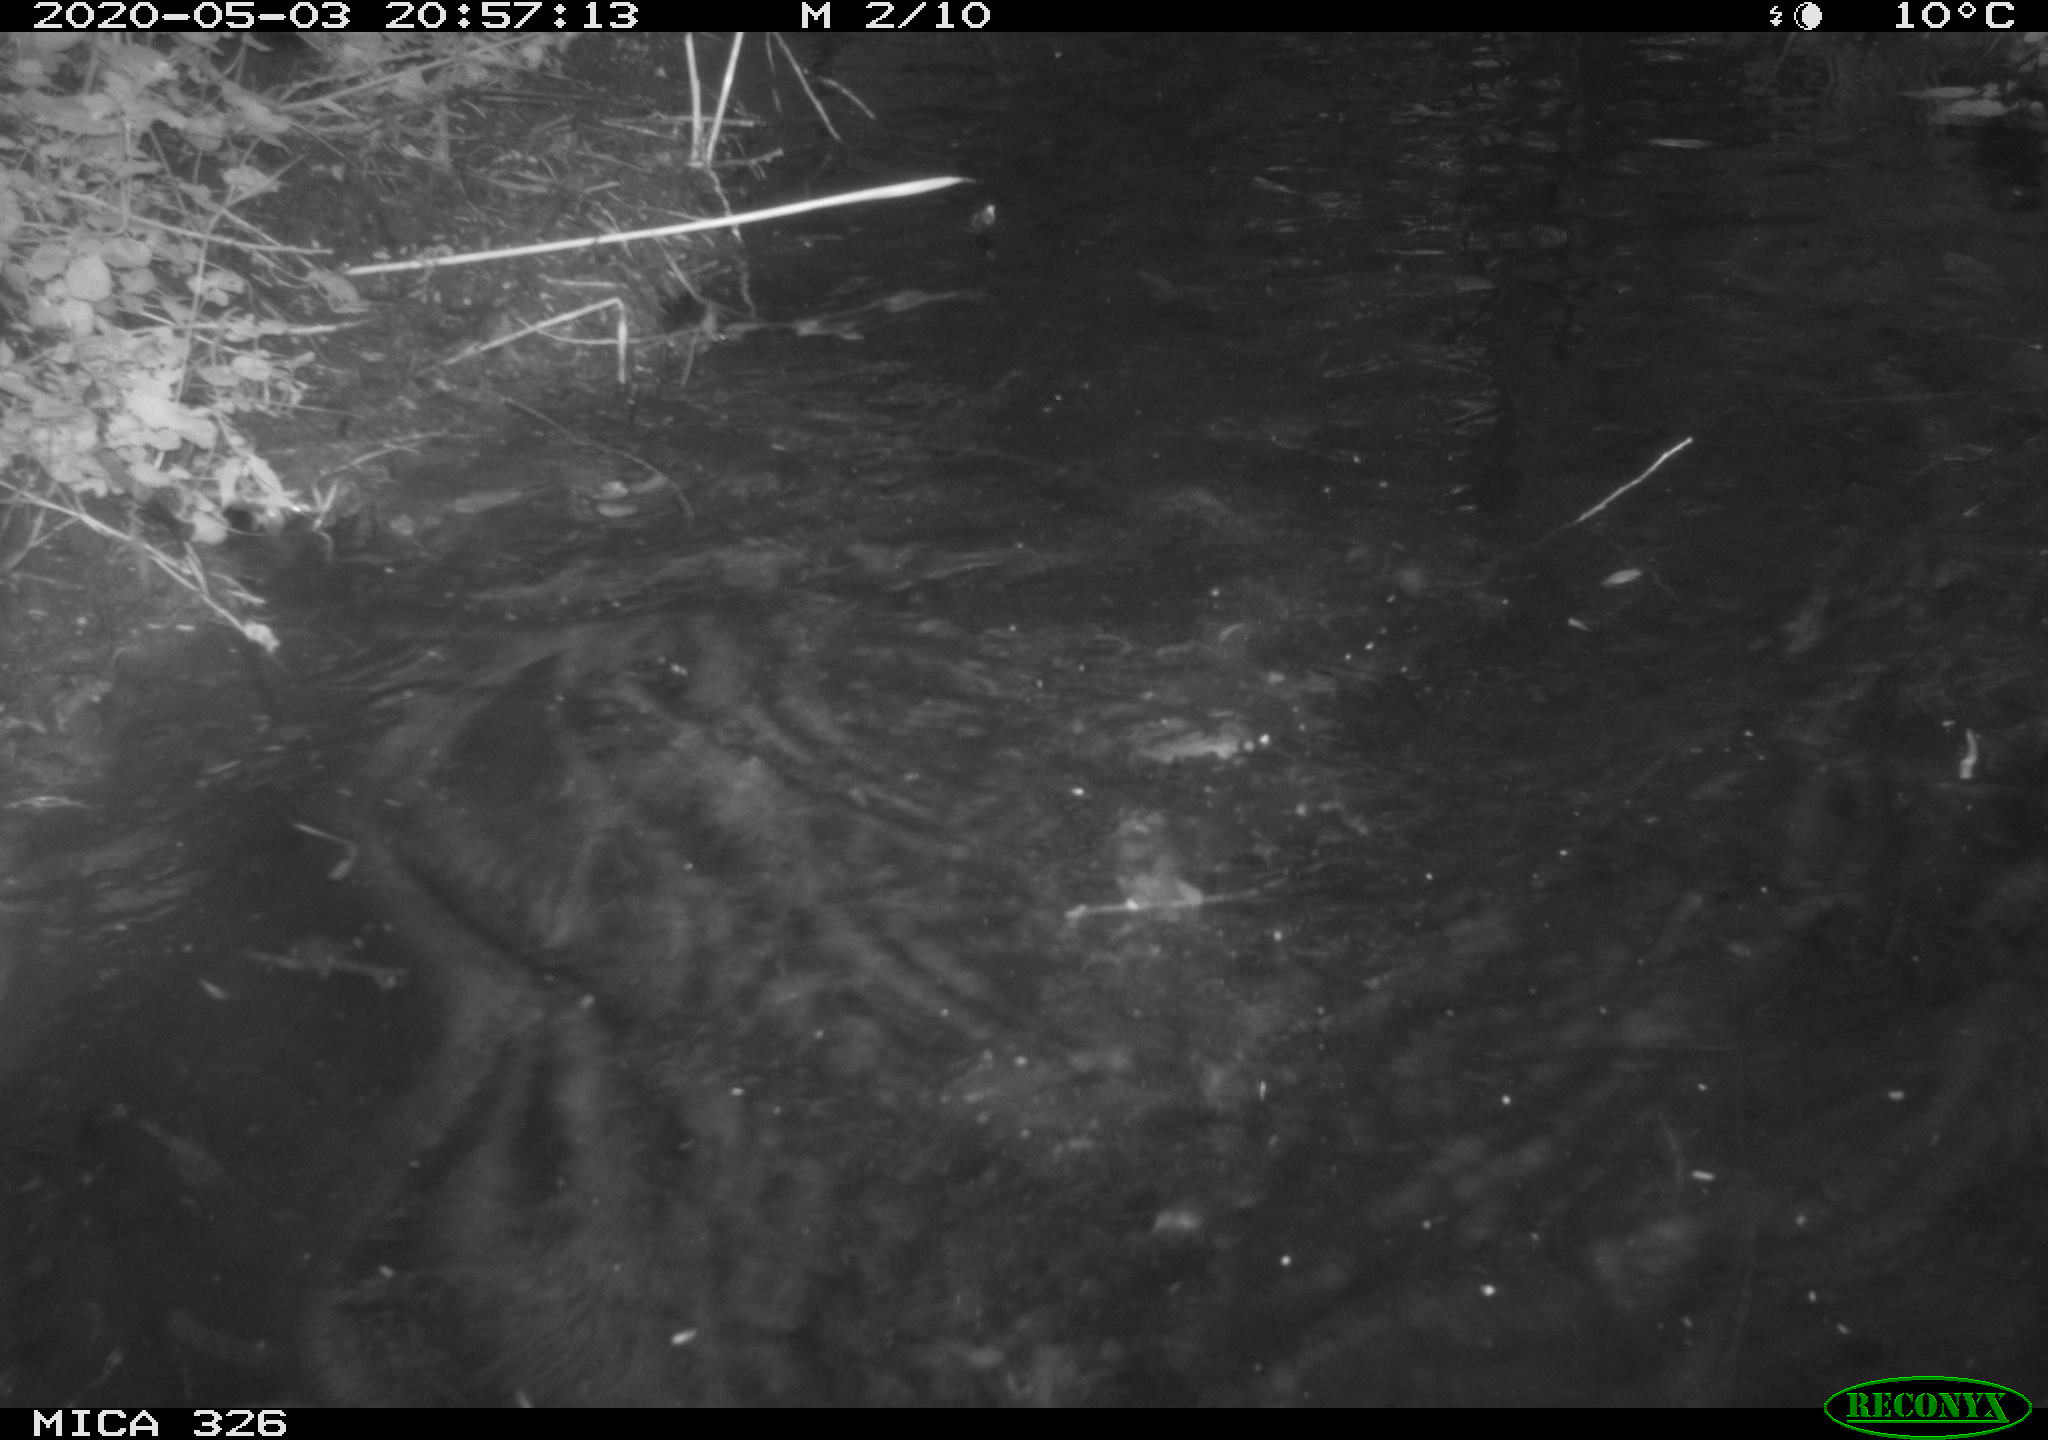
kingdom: Animalia
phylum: Chordata
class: Mammalia
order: Rodentia
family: Myocastoridae
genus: Myocastor
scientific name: Myocastor coypus
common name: Coypu
